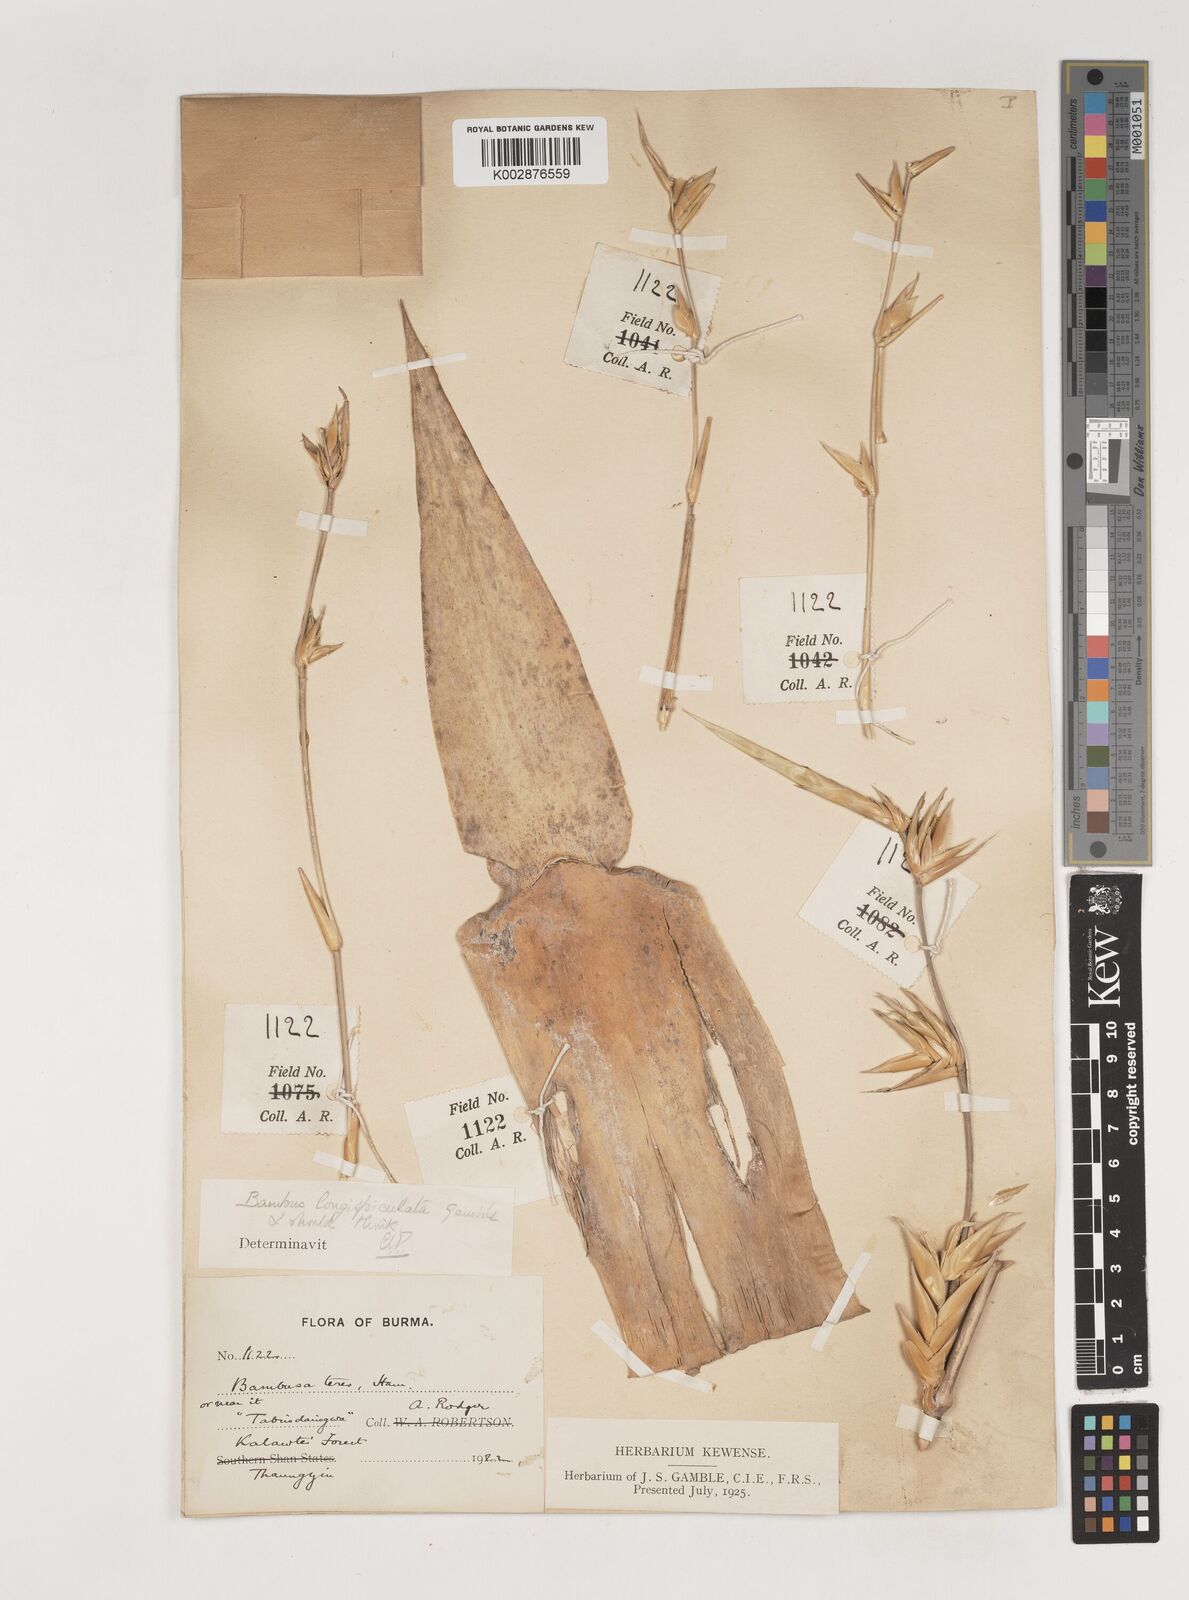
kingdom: Plantae
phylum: Tracheophyta
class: Liliopsida
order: Poales
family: Poaceae
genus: Bambusa
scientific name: Bambusa longispiculata
